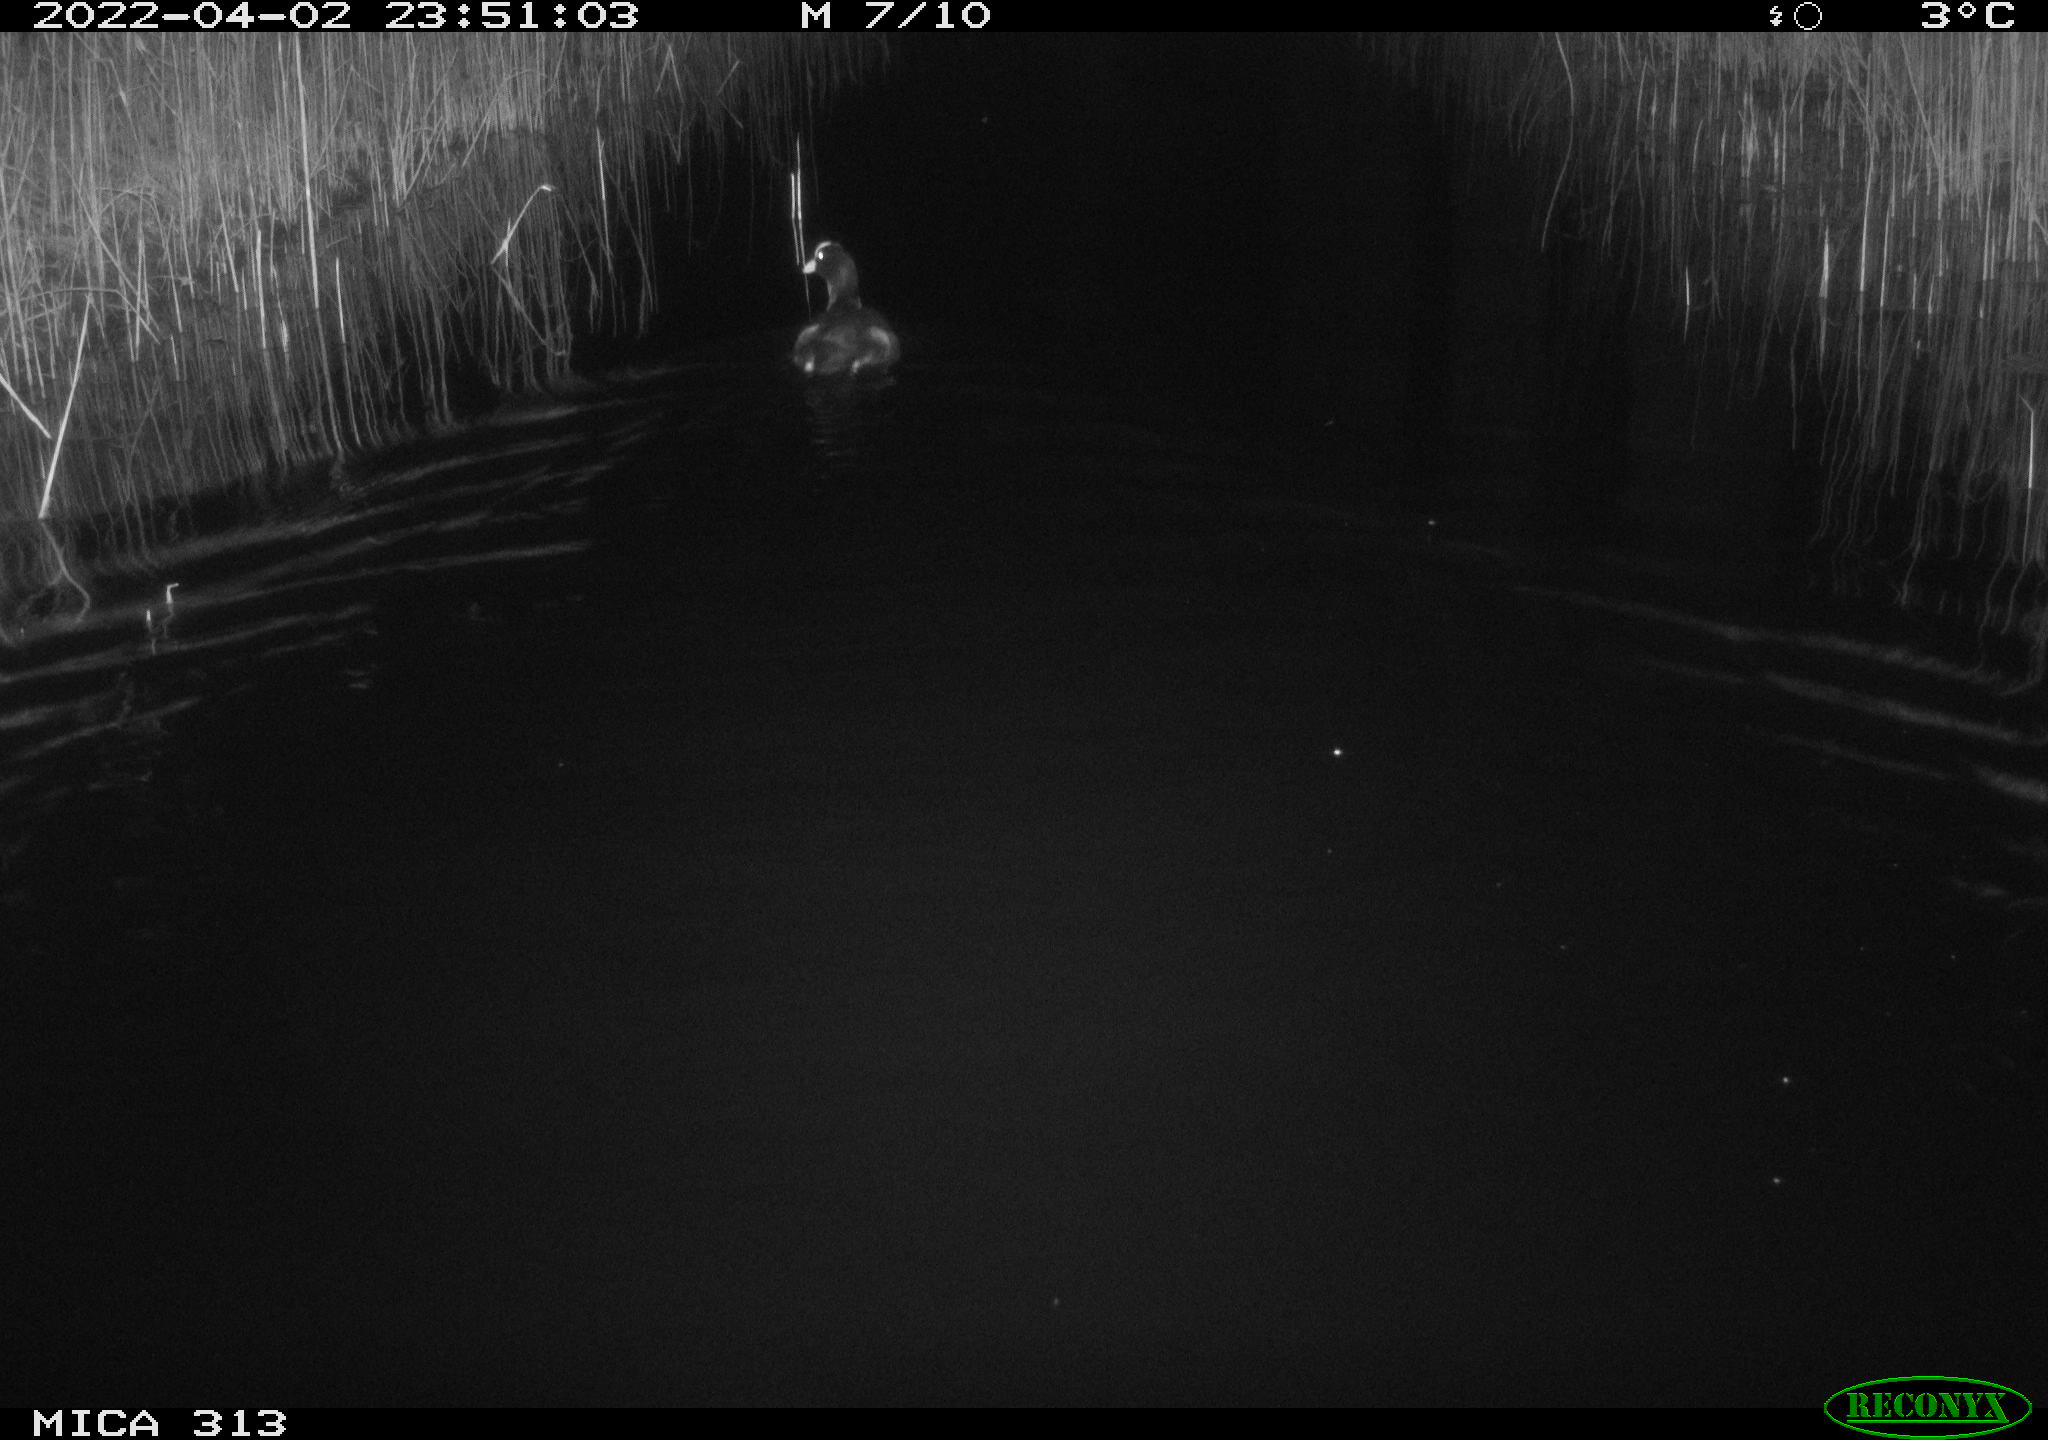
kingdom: Animalia
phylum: Chordata
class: Aves
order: Gruiformes
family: Rallidae
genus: Gallinula
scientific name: Gallinula chloropus
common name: Common moorhen
